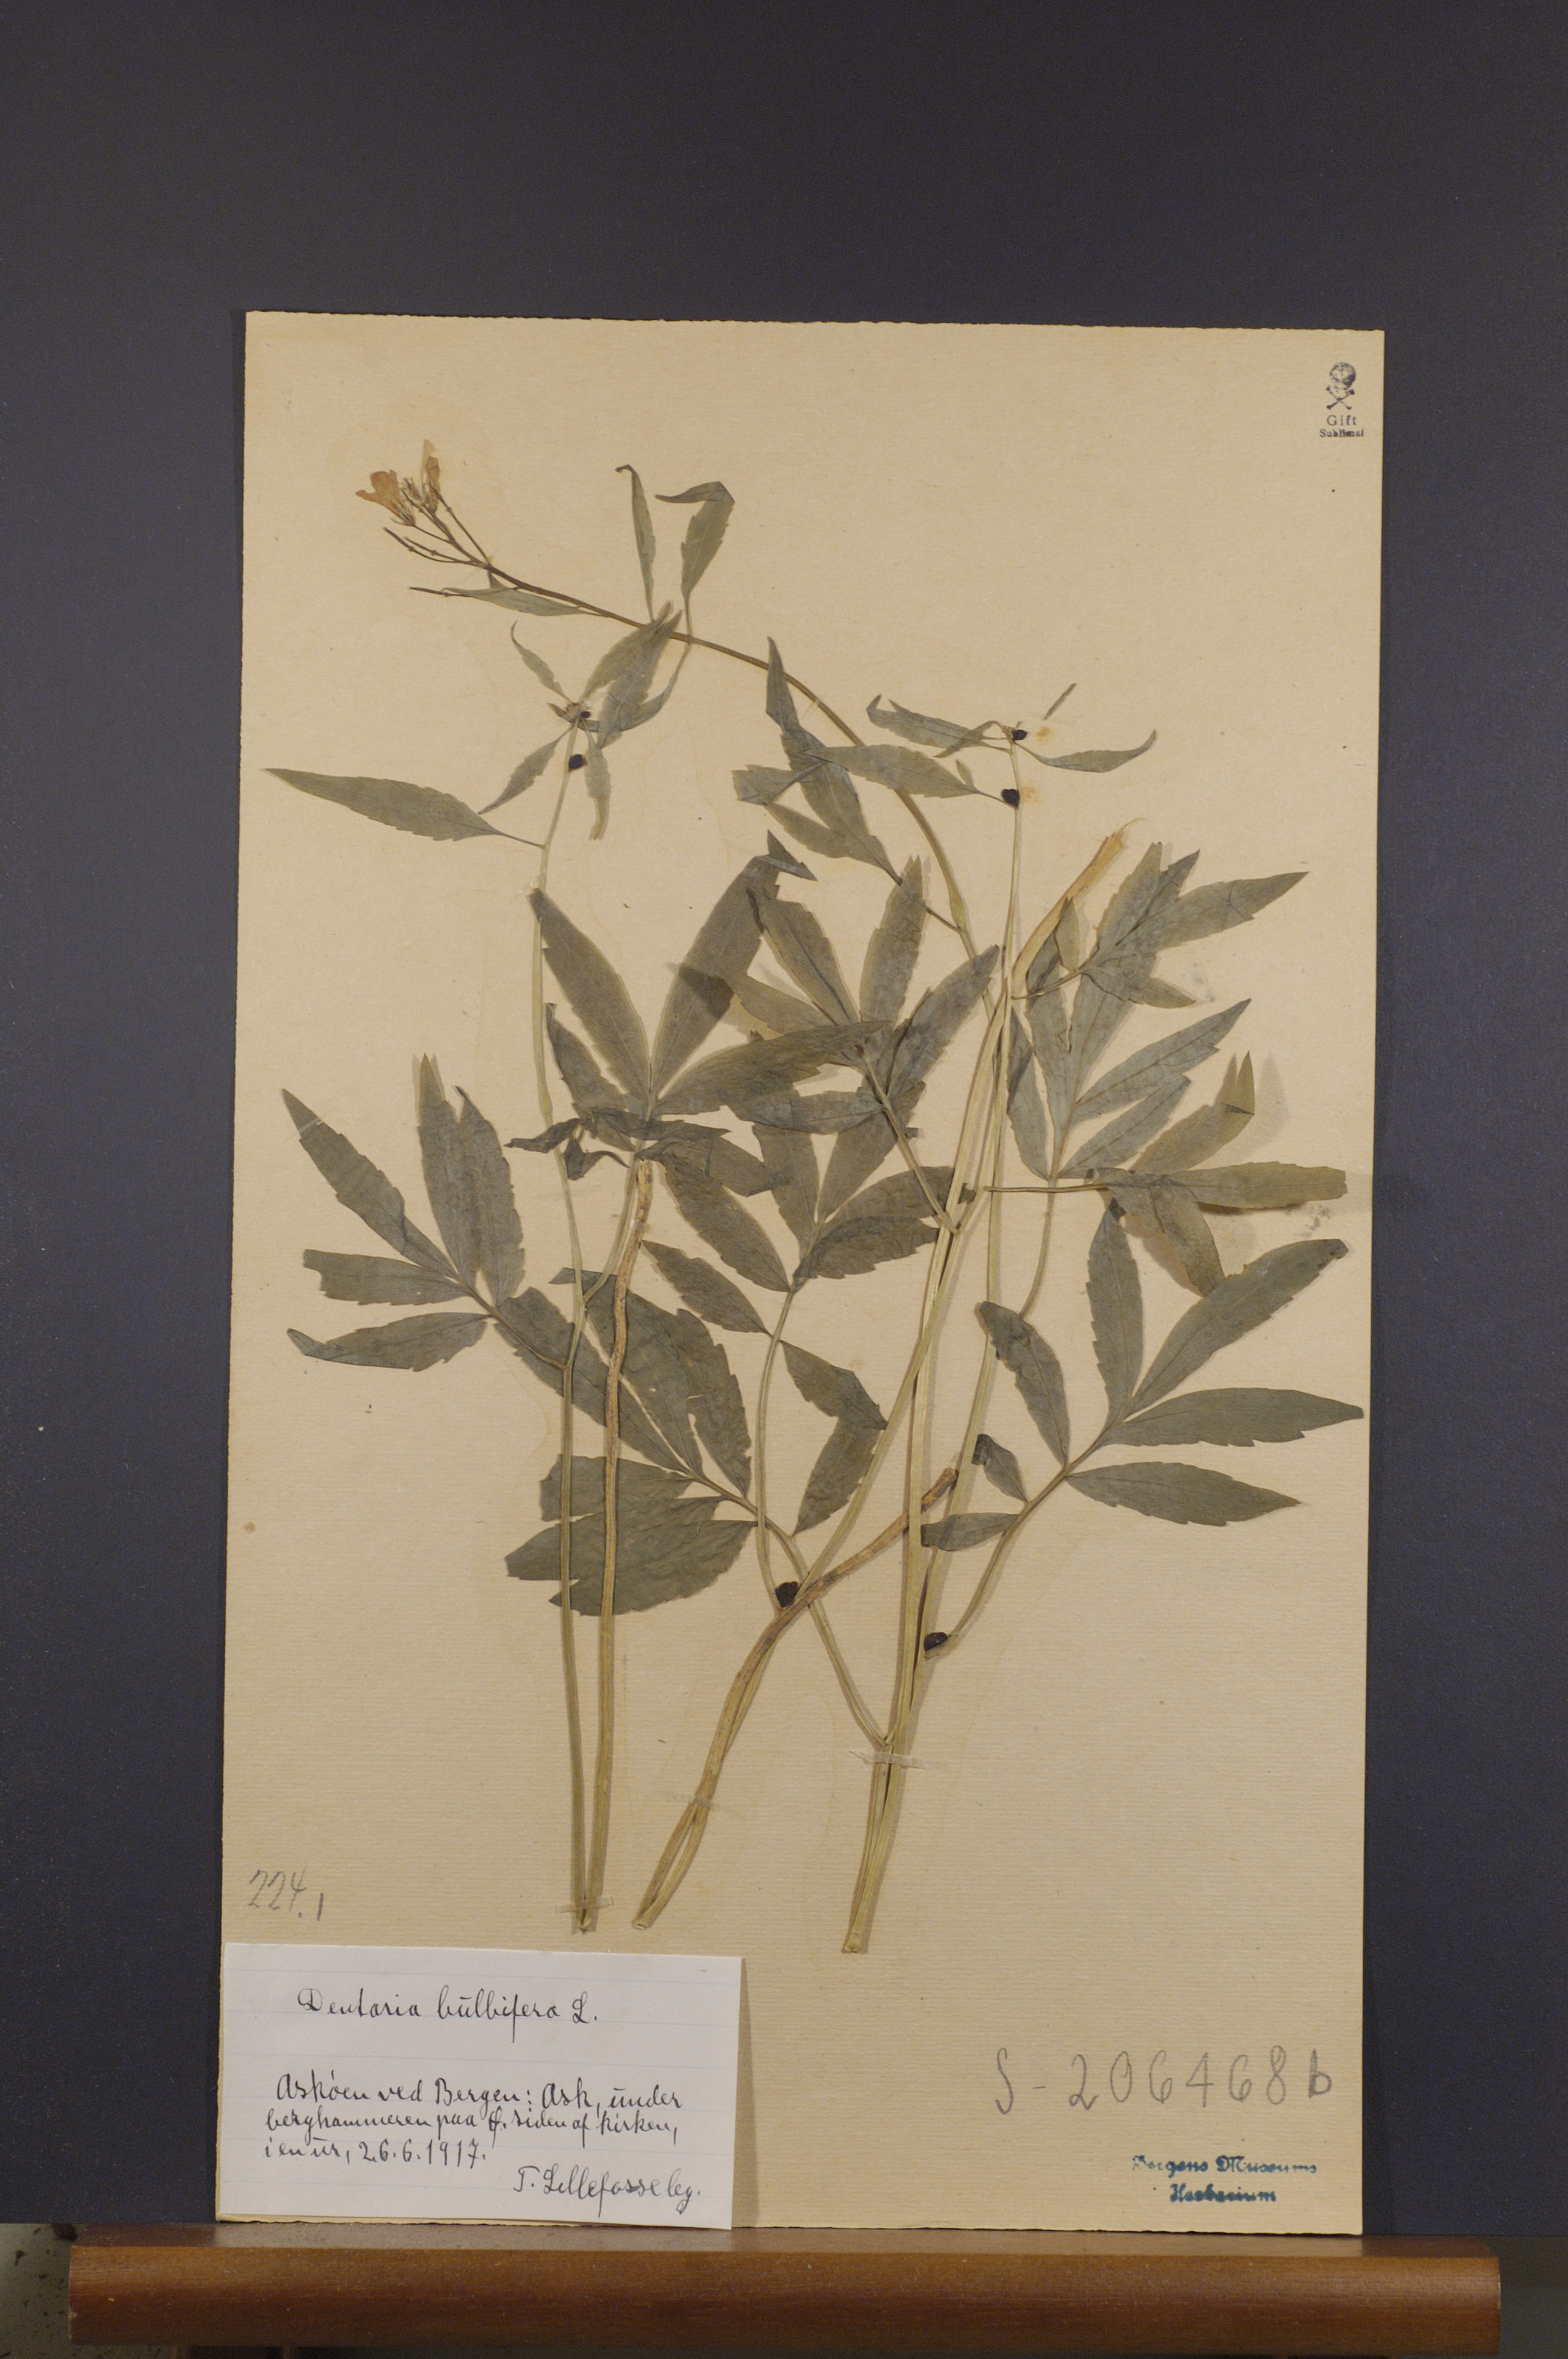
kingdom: Plantae
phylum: Tracheophyta
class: Magnoliopsida
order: Brassicales
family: Brassicaceae
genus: Cardamine
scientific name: Cardamine bulbifera
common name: Coralroot bittercress
